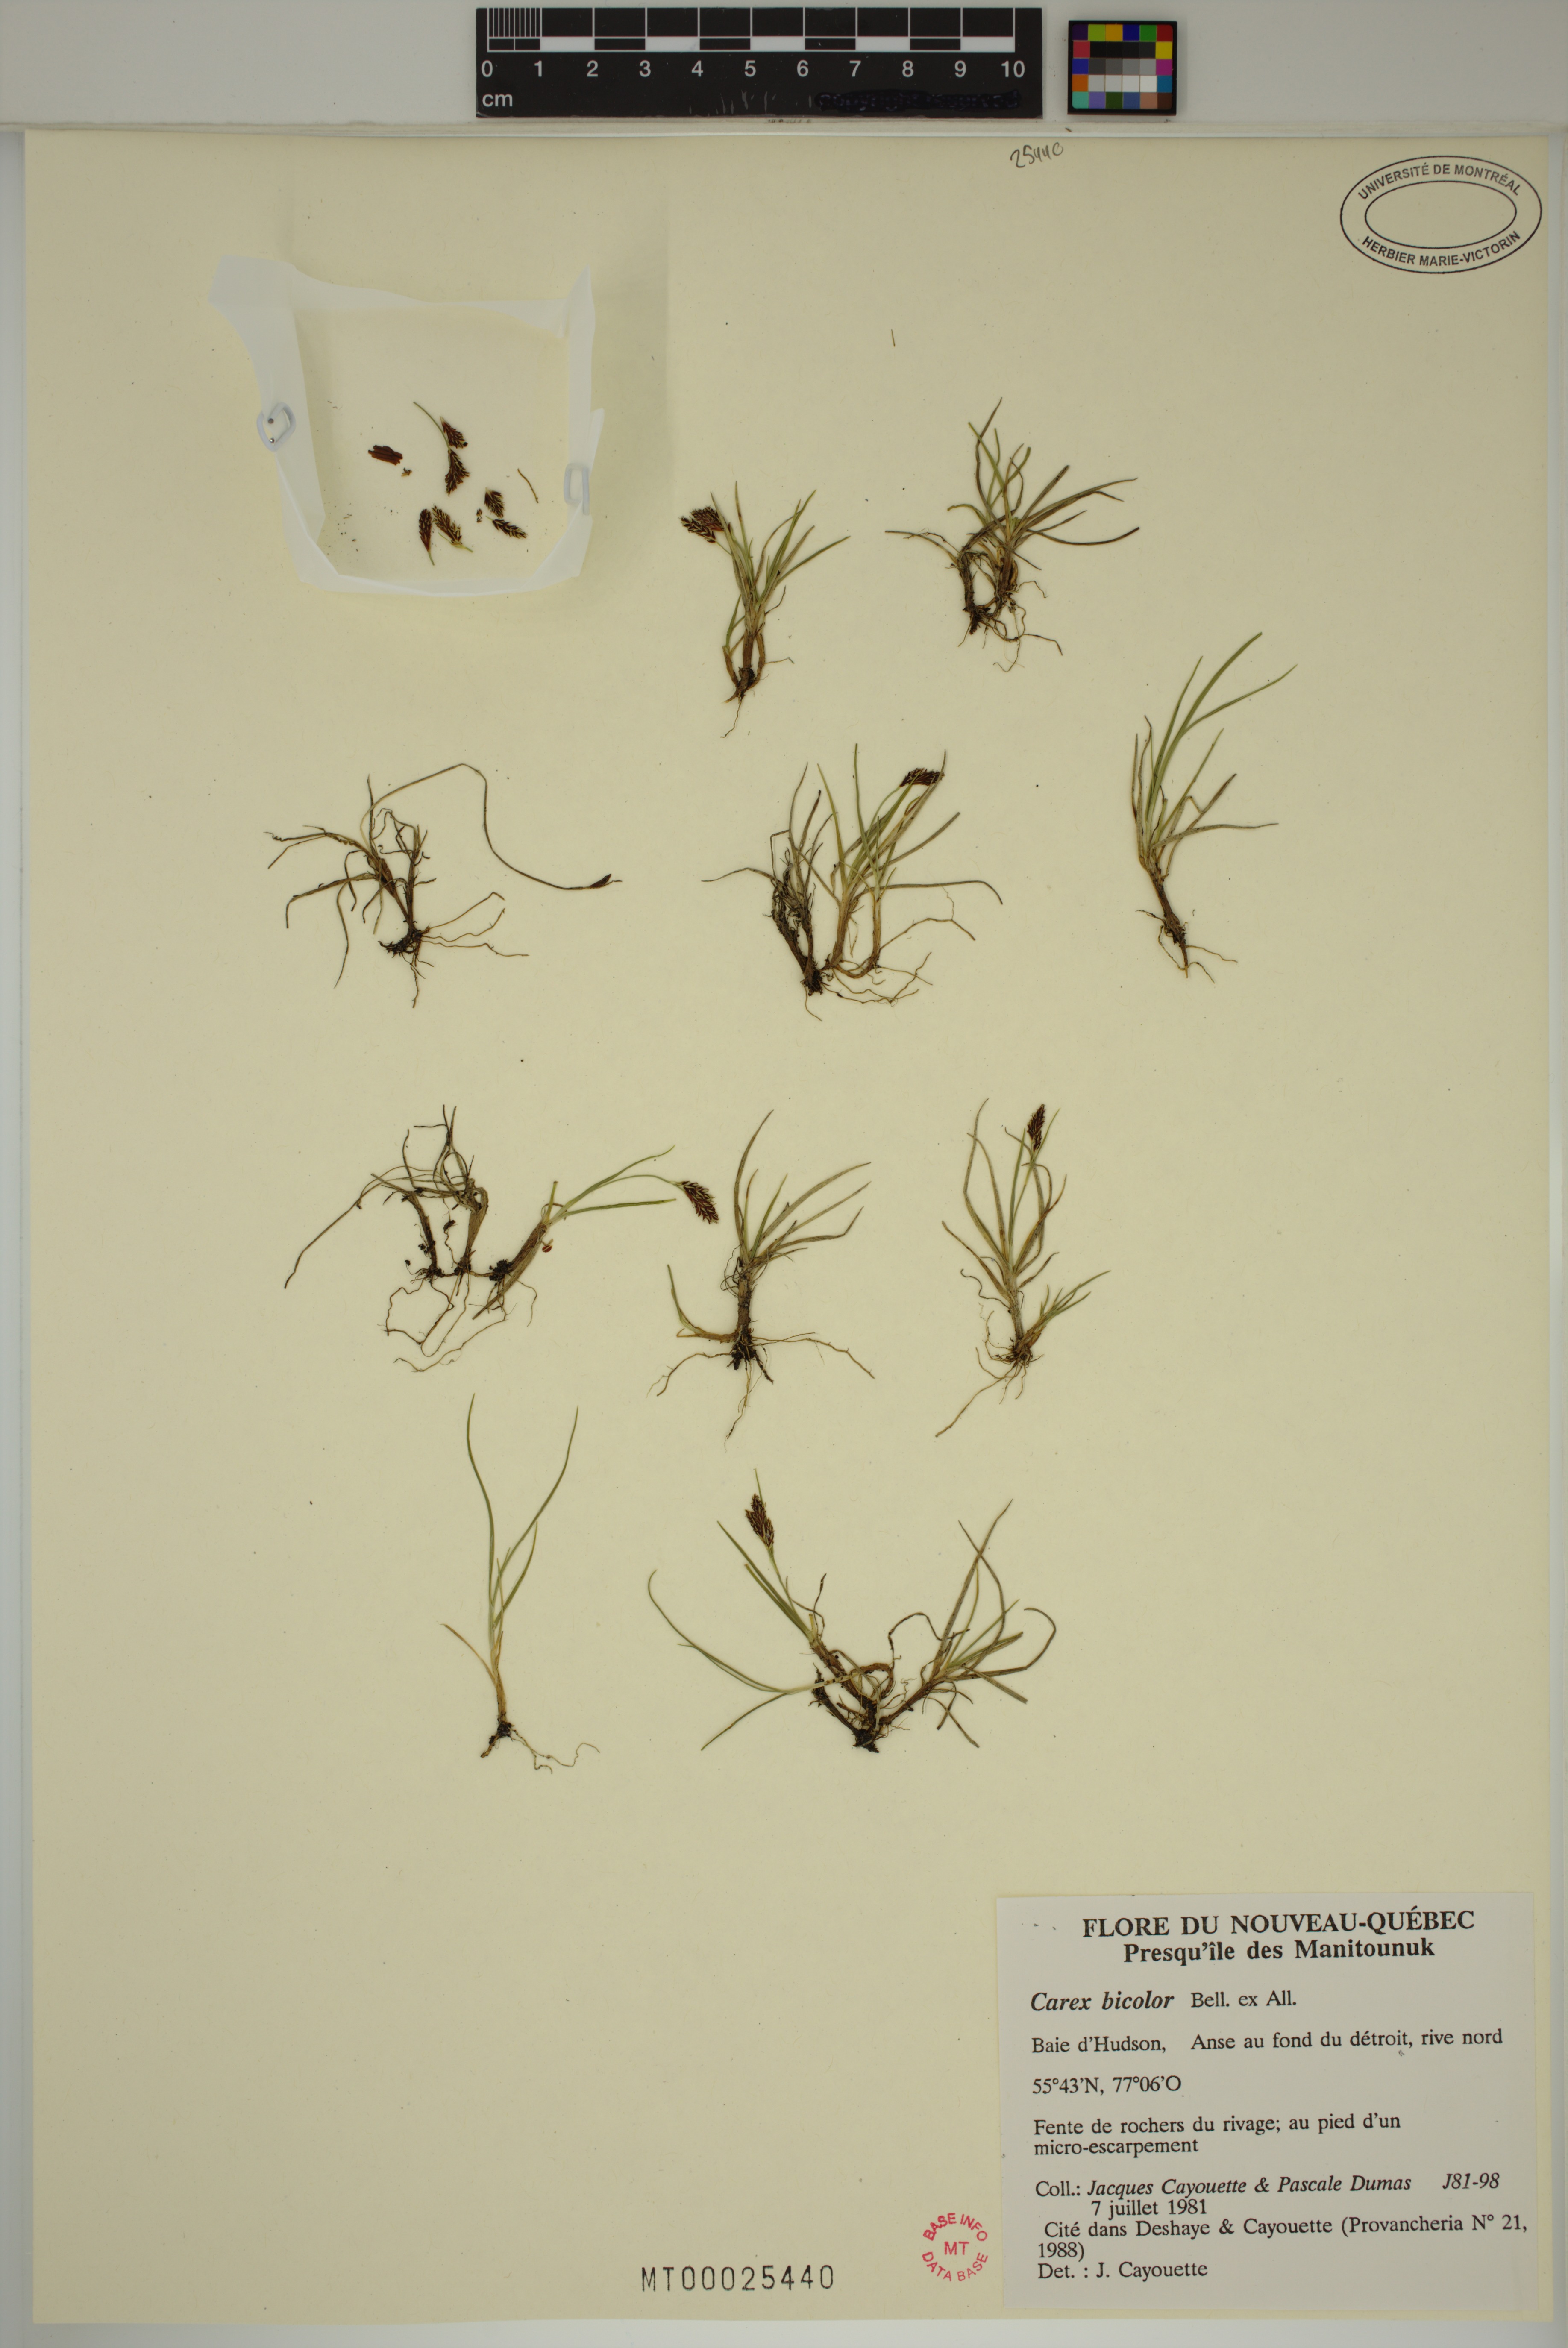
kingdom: Plantae
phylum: Tracheophyta
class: Liliopsida
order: Poales
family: Cyperaceae
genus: Carex
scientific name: Carex bicolor
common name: Bicoloured sedge
